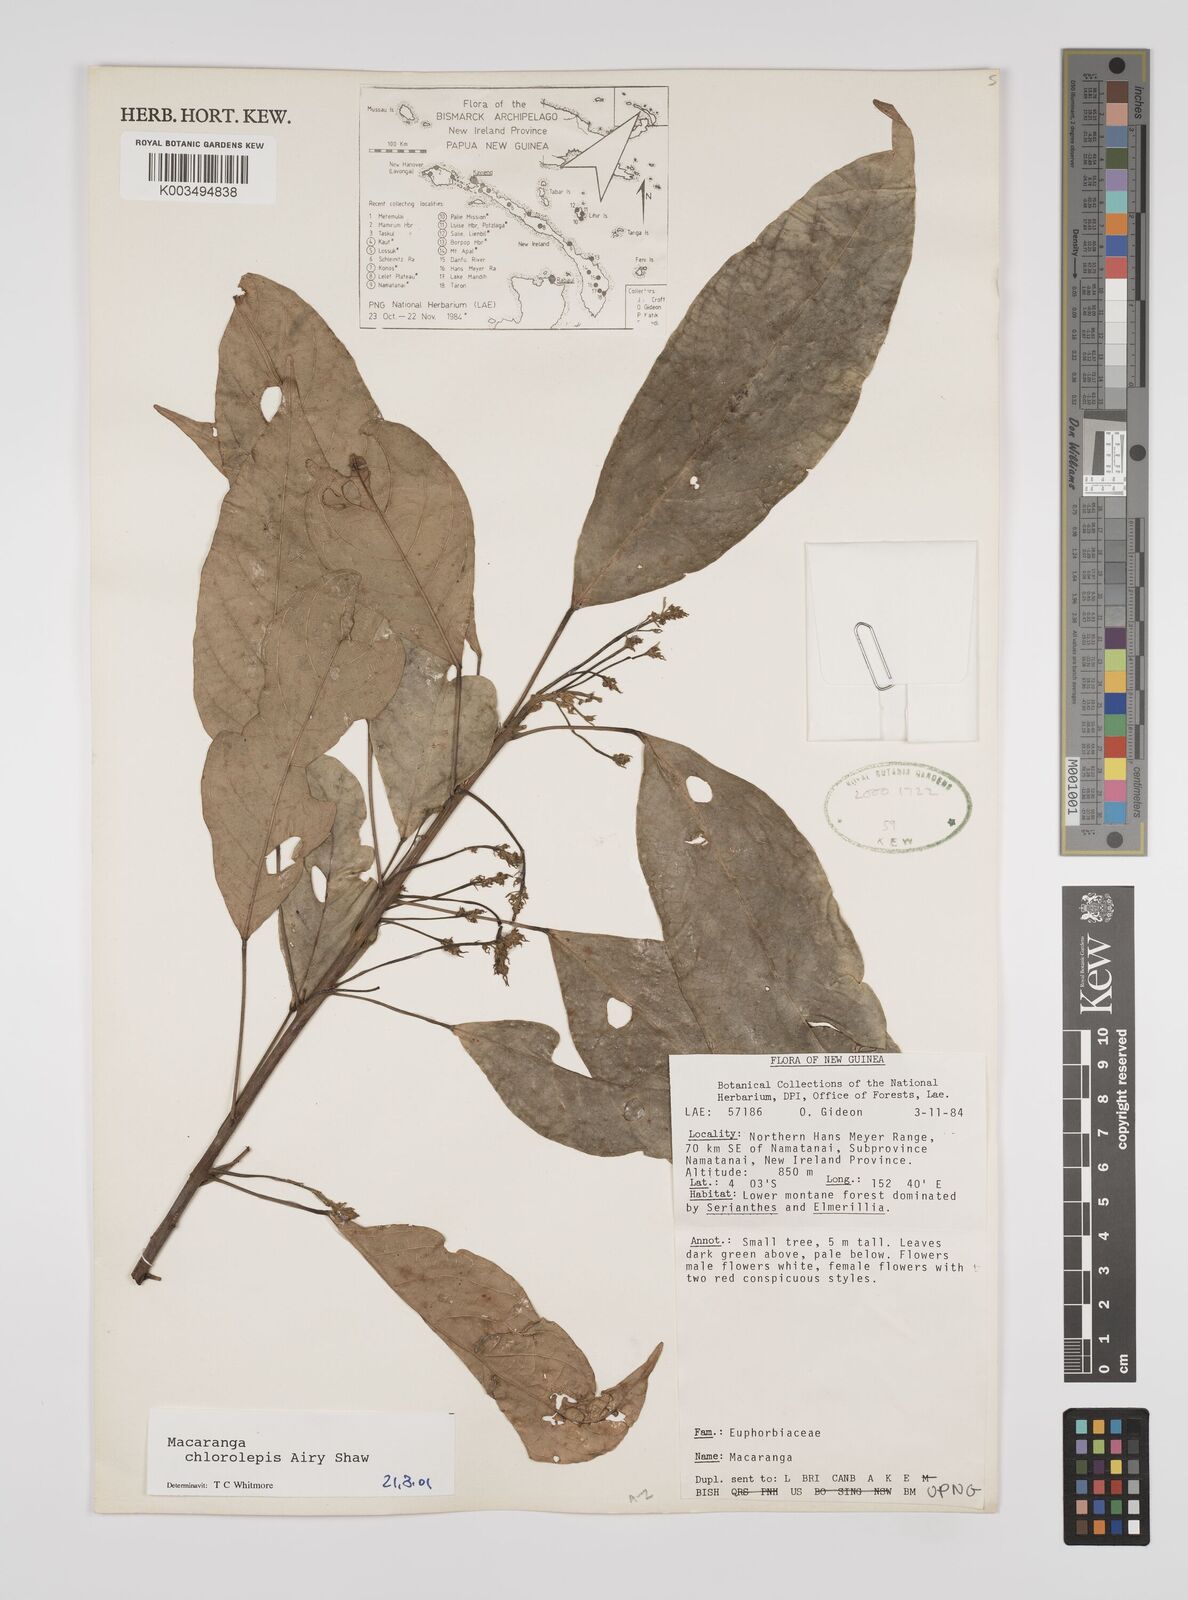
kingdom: Plantae
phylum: Tracheophyta
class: Magnoliopsida
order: Malpighiales
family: Euphorbiaceae
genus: Macaranga
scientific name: Macaranga chlorolepis
